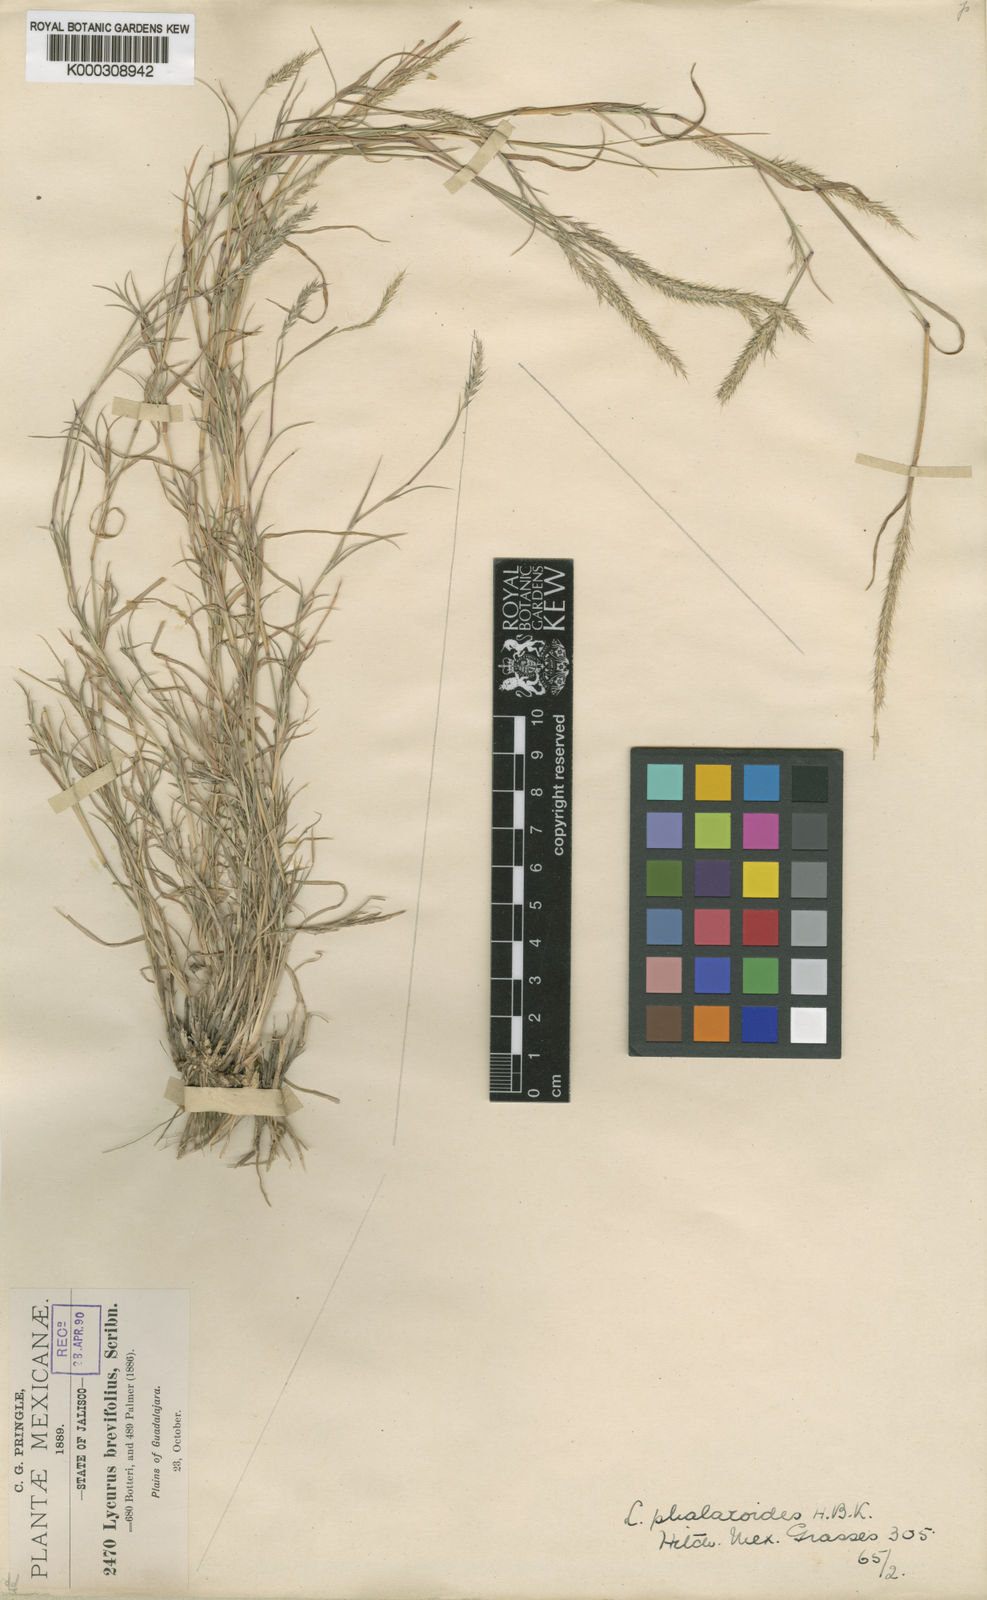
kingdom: Plantae
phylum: Tracheophyta
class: Liliopsida
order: Poales
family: Poaceae
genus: Muhlenbergia
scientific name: Muhlenbergia
